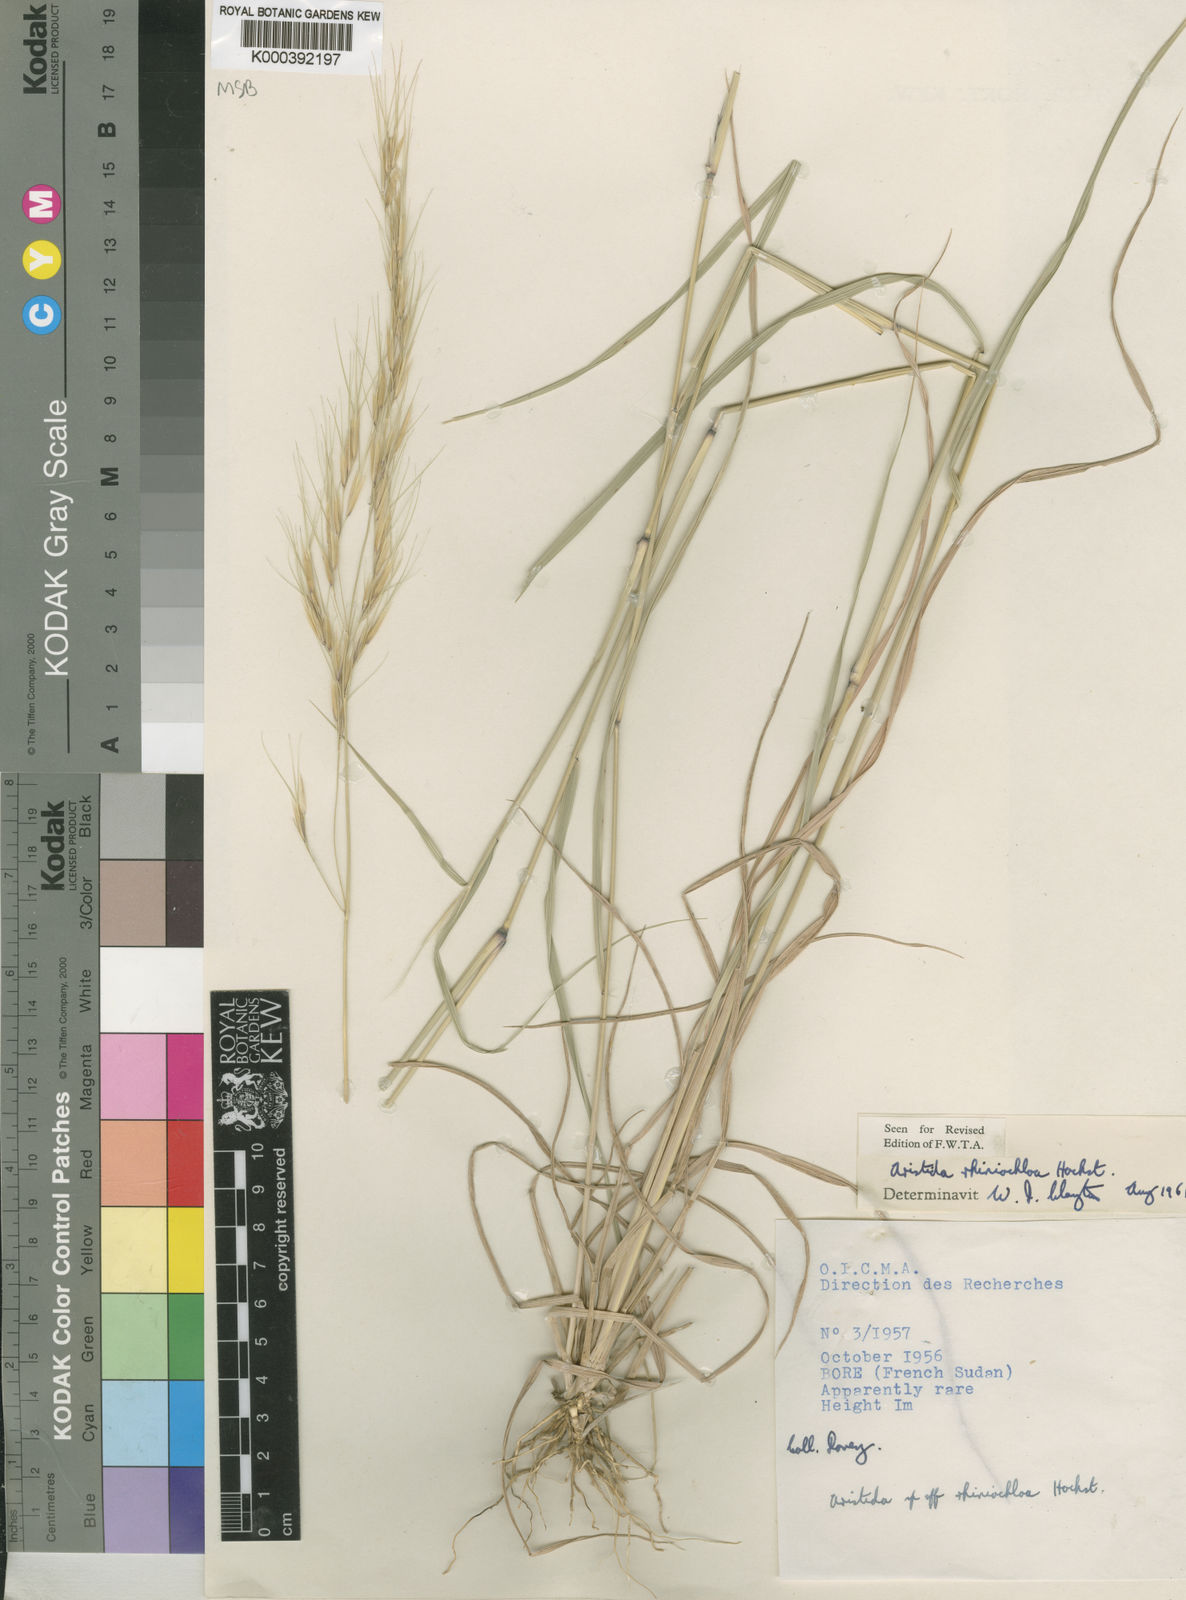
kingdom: Plantae
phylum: Tracheophyta
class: Liliopsida
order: Poales
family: Poaceae
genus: Aristida
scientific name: Aristida rhiniochloa
